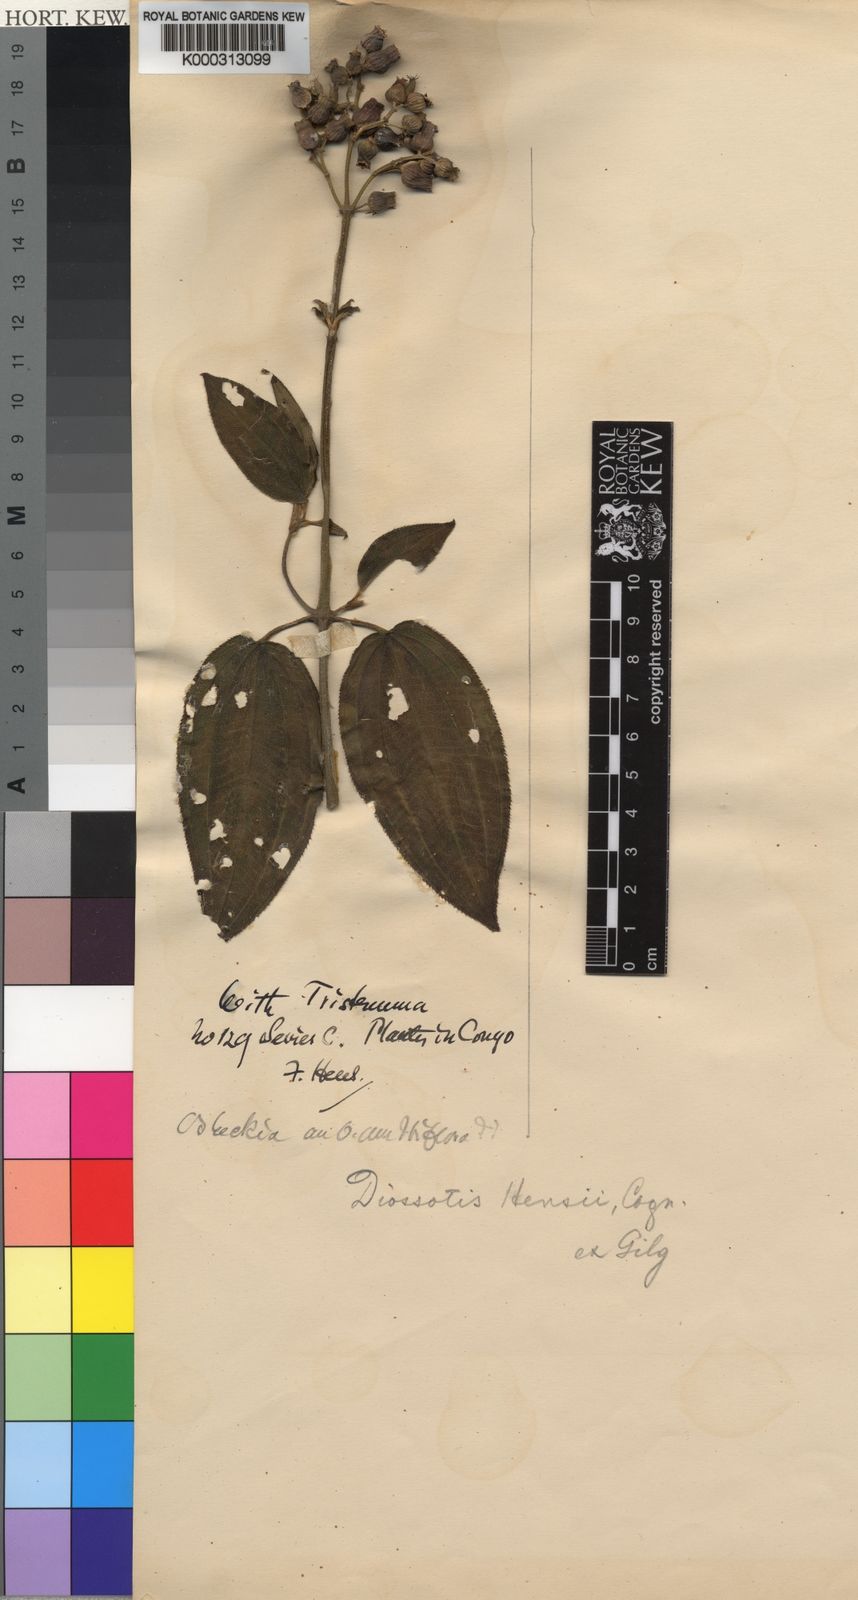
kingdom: Plantae
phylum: Tracheophyta
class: Magnoliopsida
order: Myrtales
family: Melastomataceae
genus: Dupineta
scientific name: Dupineta hensii
